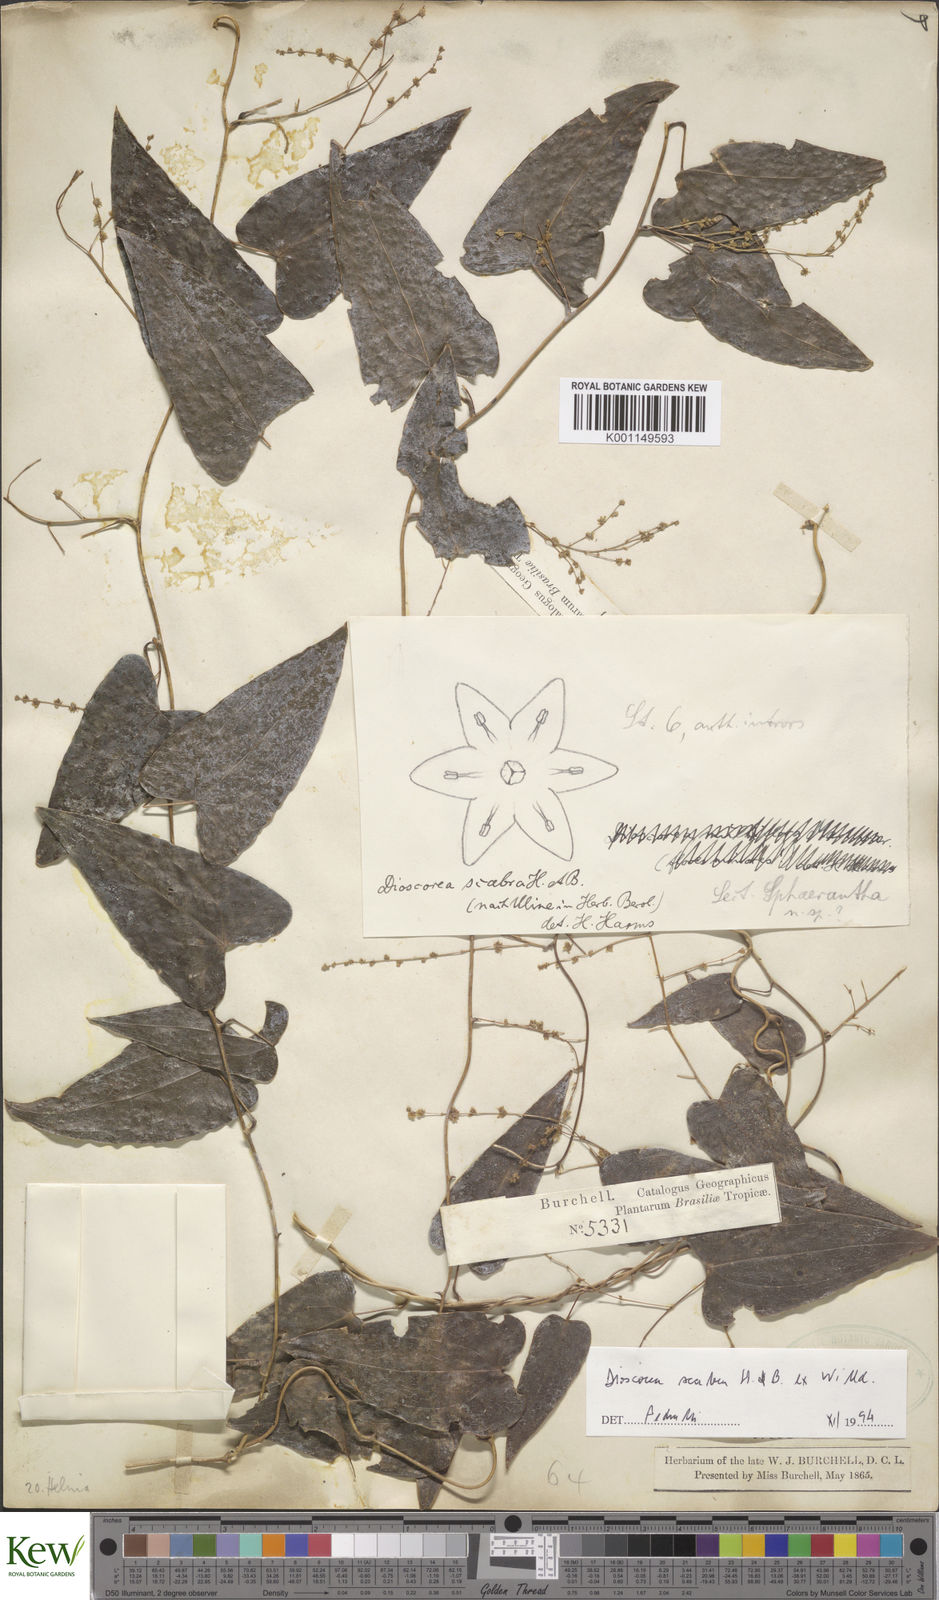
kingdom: Plantae
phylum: Tracheophyta
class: Liliopsida
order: Dioscoreales
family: Dioscoreaceae
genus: Dioscorea
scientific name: Dioscorea scabra
